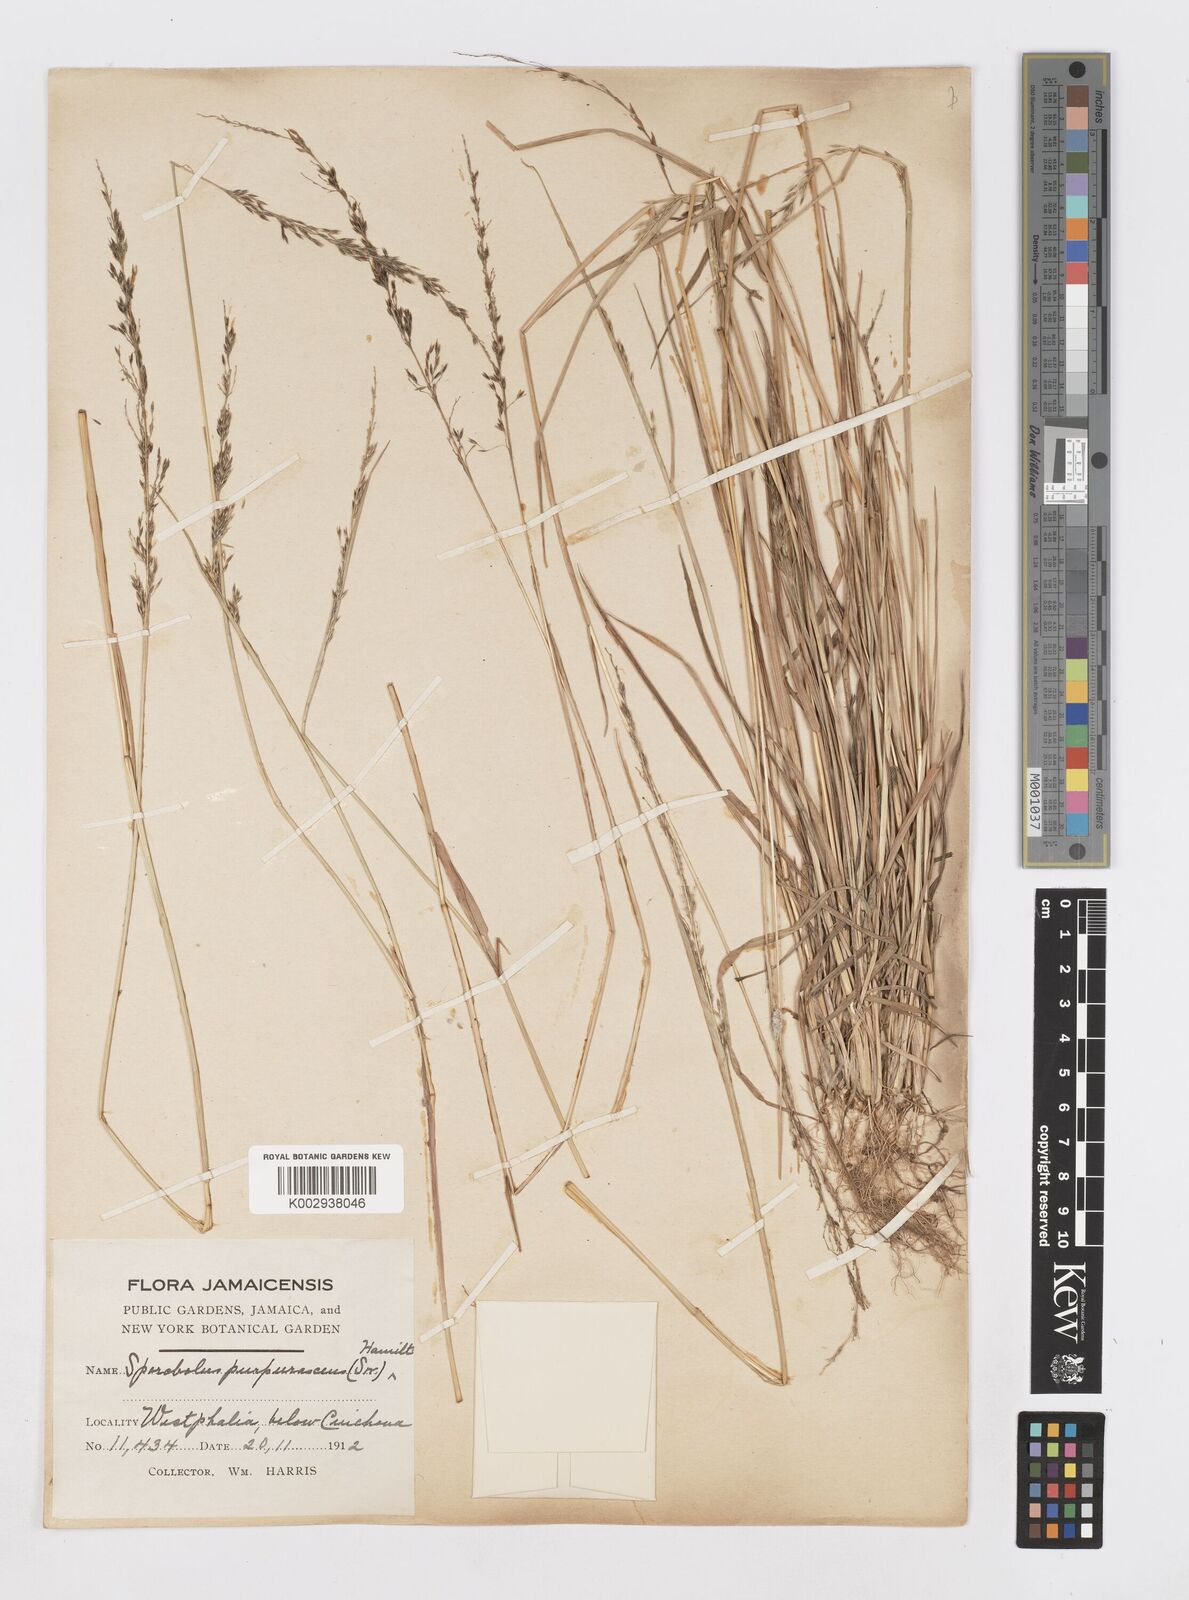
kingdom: Plantae
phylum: Tracheophyta
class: Liliopsida
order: Poales
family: Poaceae
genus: Sporobolus
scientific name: Sporobolus purpurascens
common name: Purple dropseed
